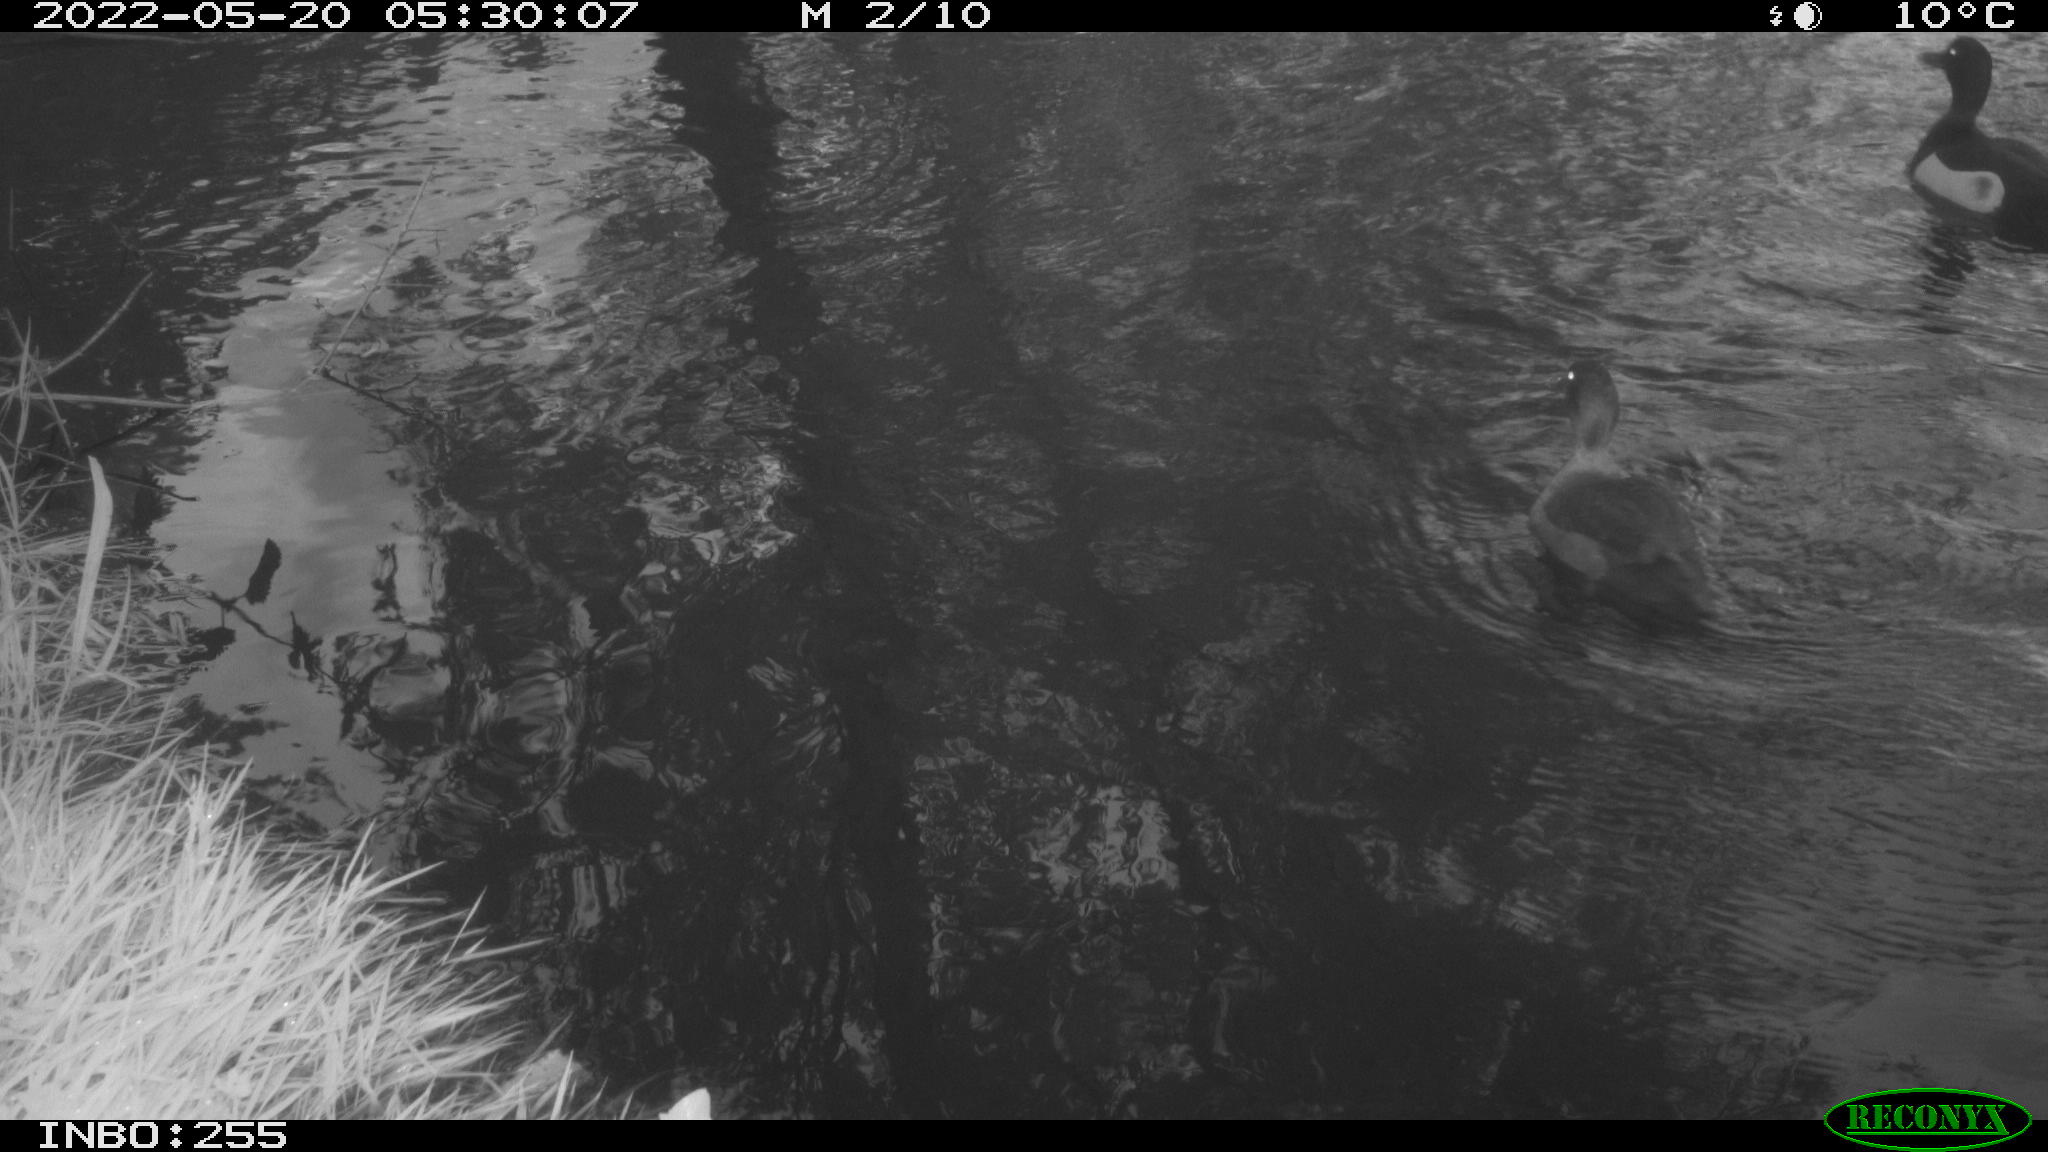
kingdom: Animalia
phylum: Chordata
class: Aves
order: Anseriformes
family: Anatidae
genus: Anas
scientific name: Anas platyrhynchos
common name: Mallard
